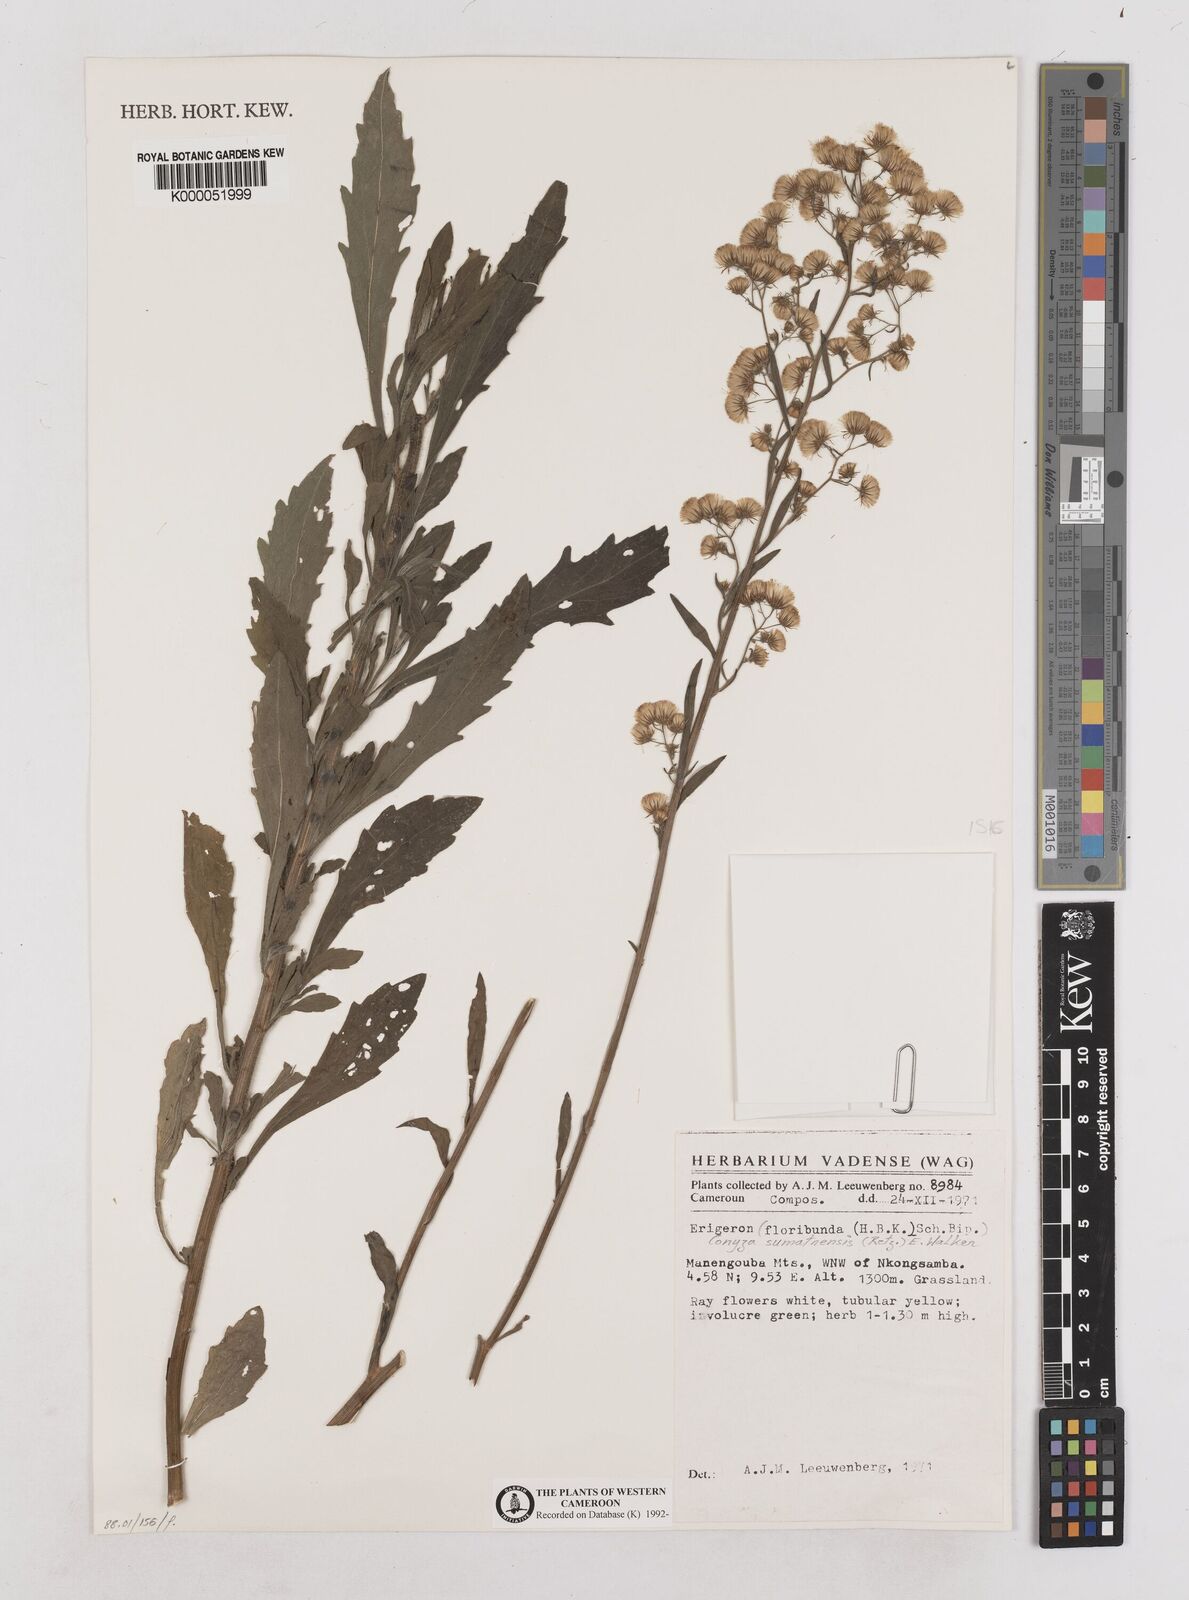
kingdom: Plantae
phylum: Tracheophyta
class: Magnoliopsida
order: Asterales
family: Asteraceae
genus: Erigeron
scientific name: Erigeron bonariensis
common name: Argentine fleabane
